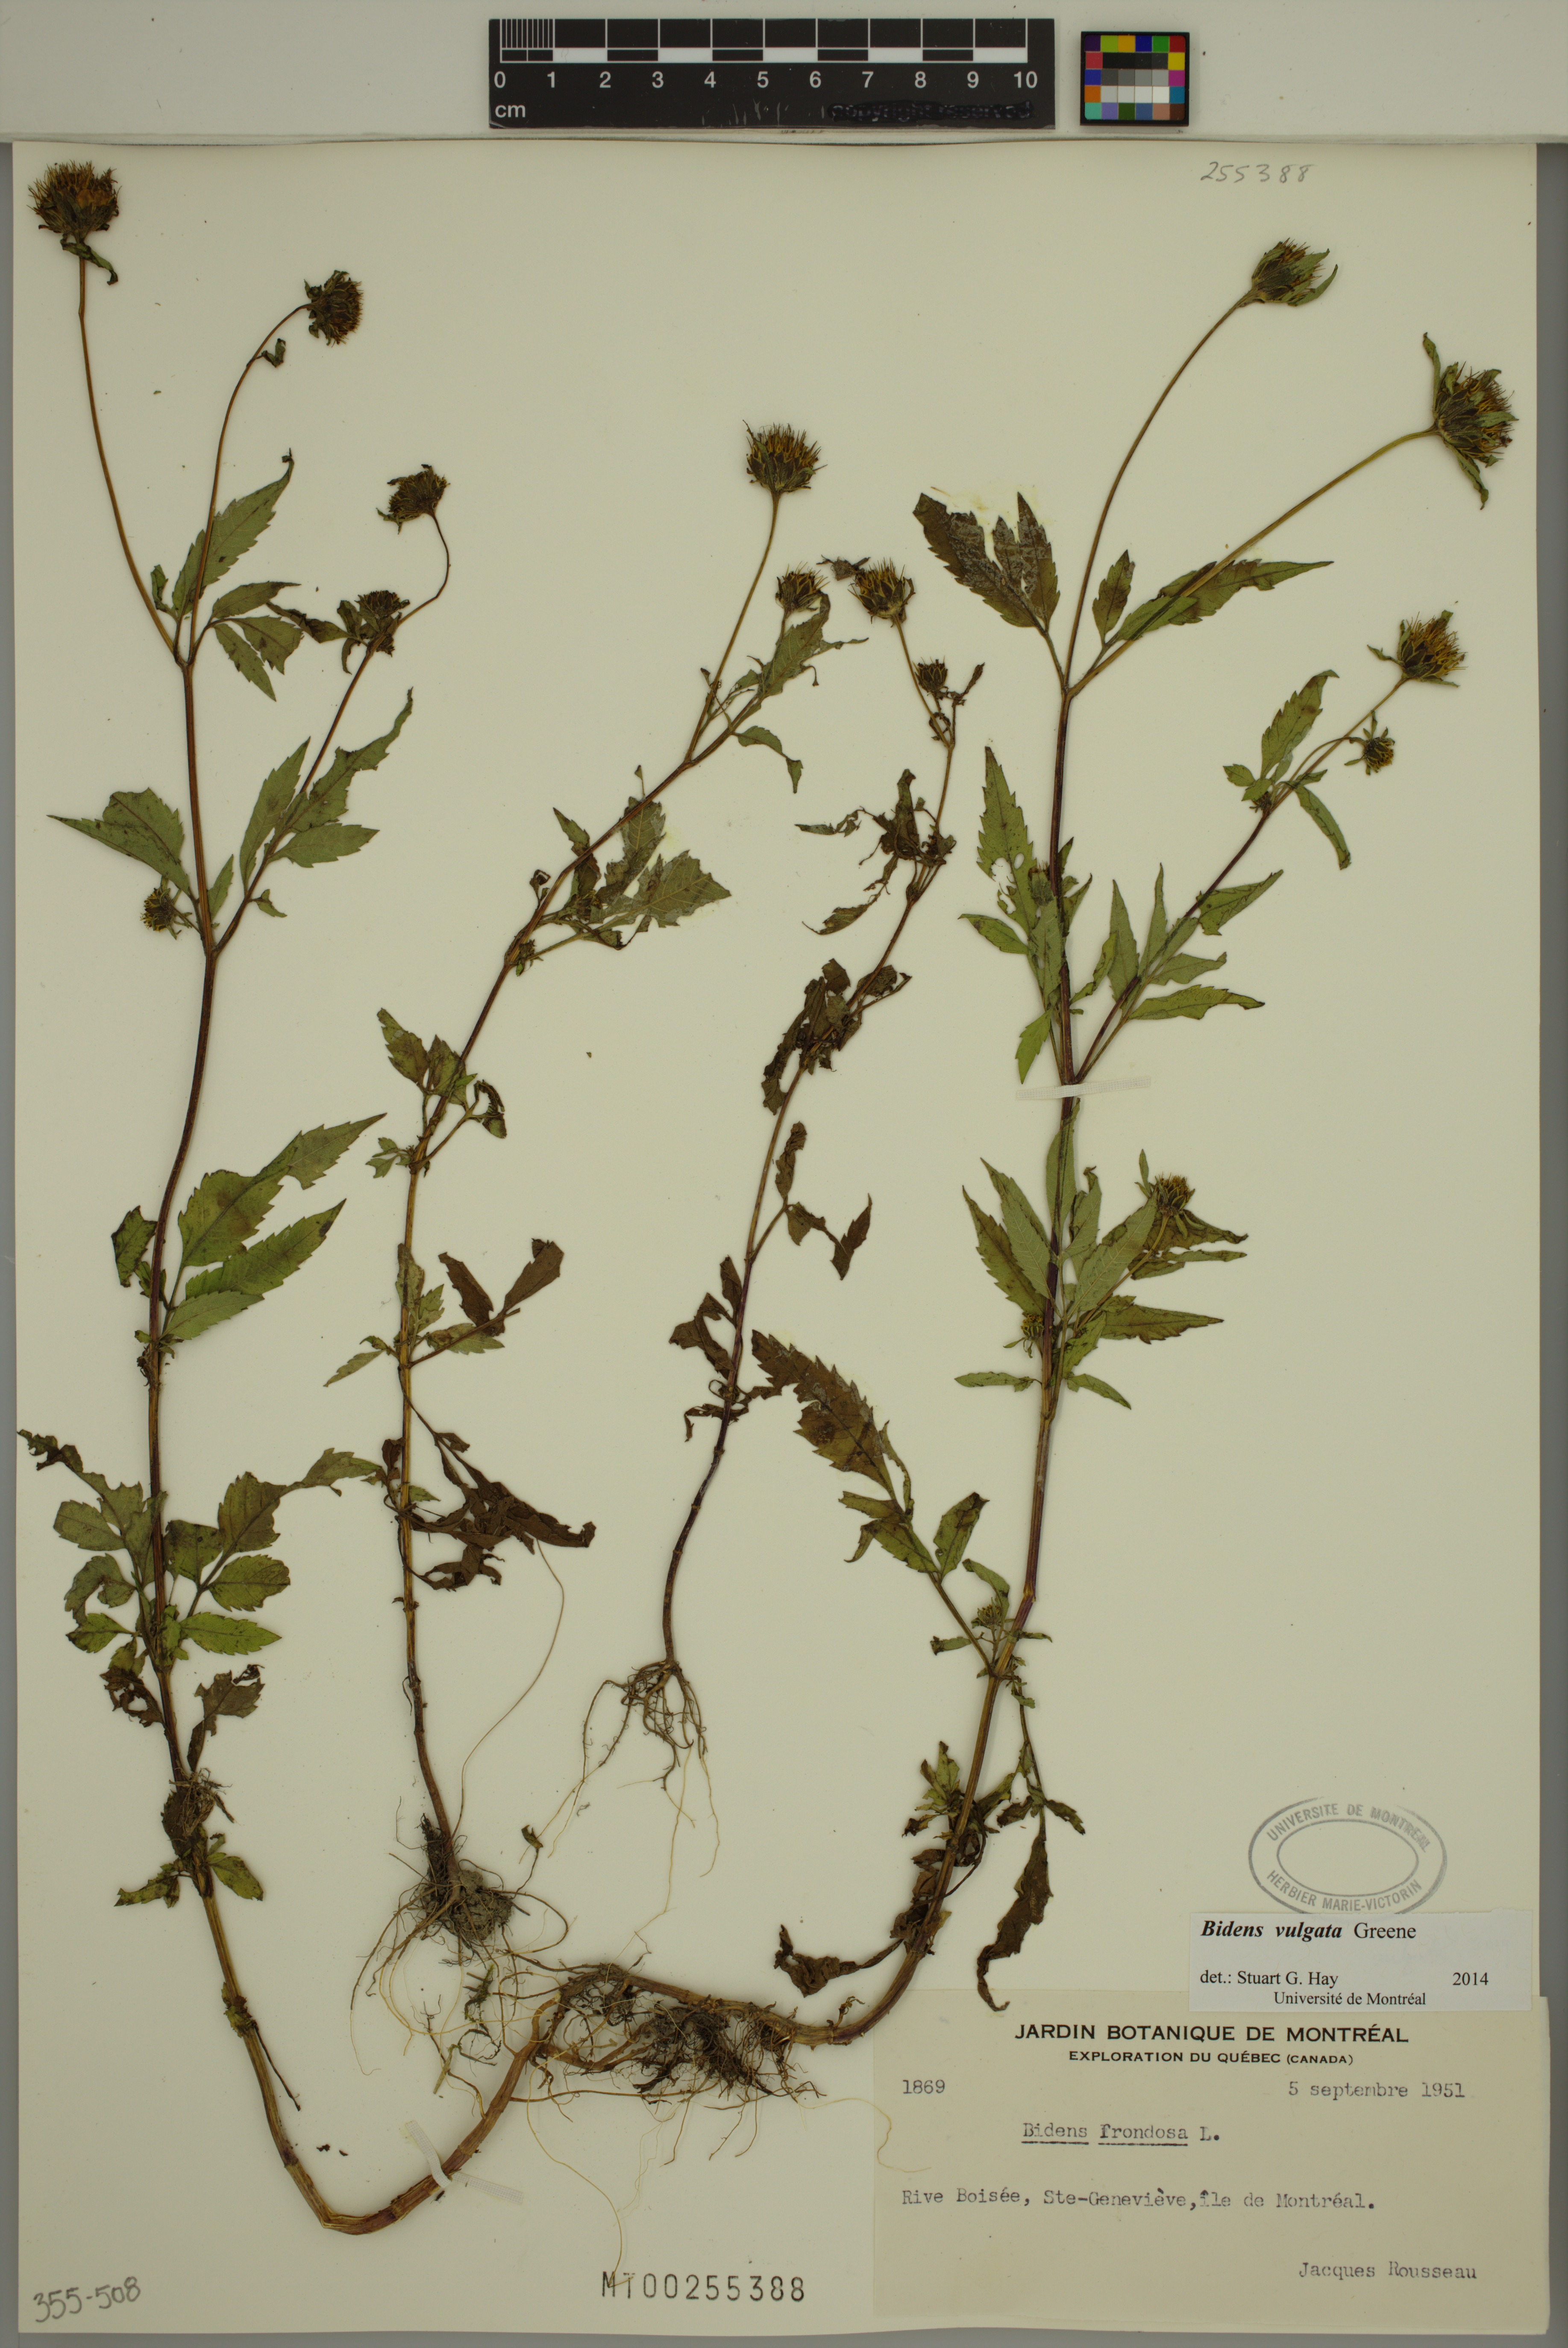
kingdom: Plantae
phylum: Tracheophyta
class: Magnoliopsida
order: Asterales
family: Asteraceae
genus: Bidens
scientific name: Bidens vulgata
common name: Tall beggarticks
